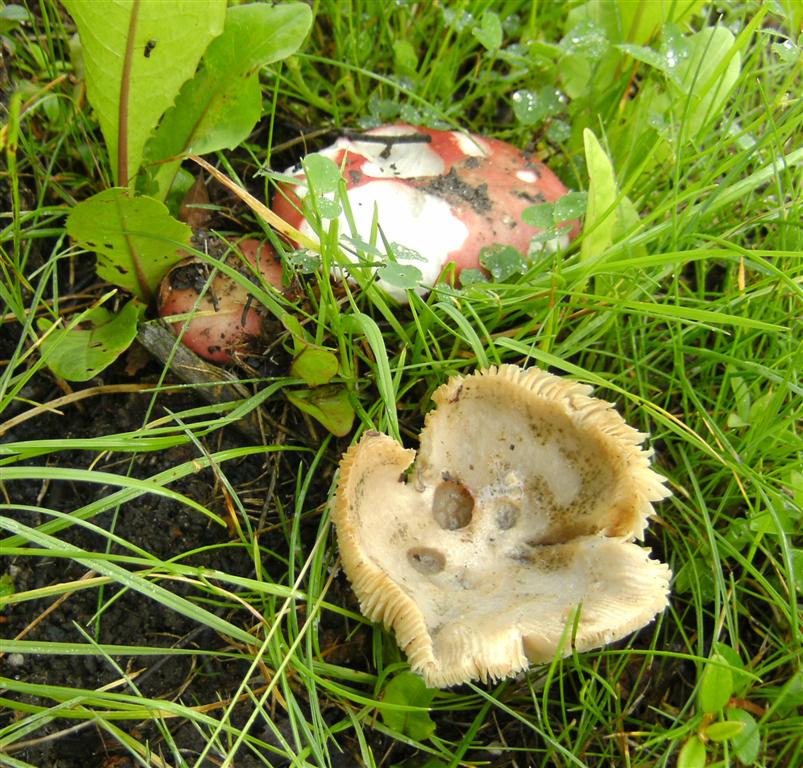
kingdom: Fungi
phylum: Basidiomycota
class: Agaricomycetes
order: Russulales
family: Russulaceae
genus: Russula
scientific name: Russula depallens
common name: falmende skørhat
